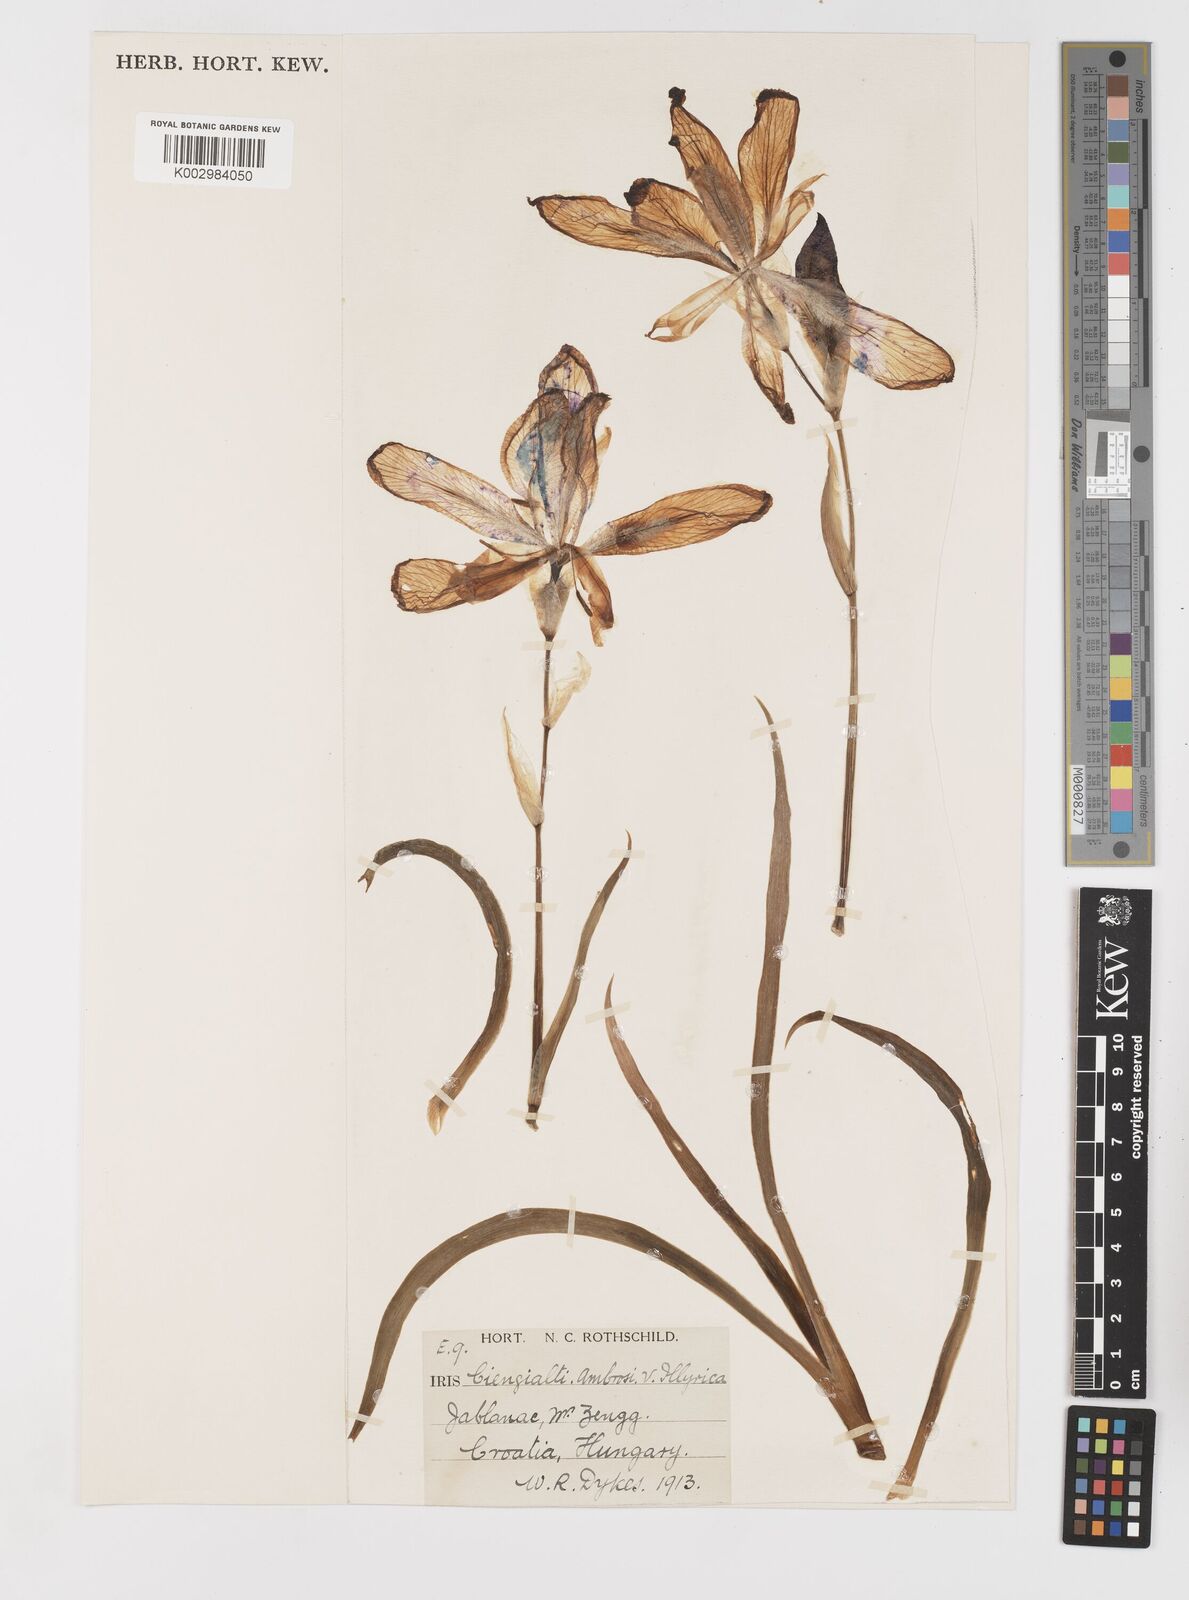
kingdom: Plantae
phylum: Tracheophyta
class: Liliopsida
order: Asparagales
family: Iridaceae
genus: Iris
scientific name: Iris pallida
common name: Sweet iris
